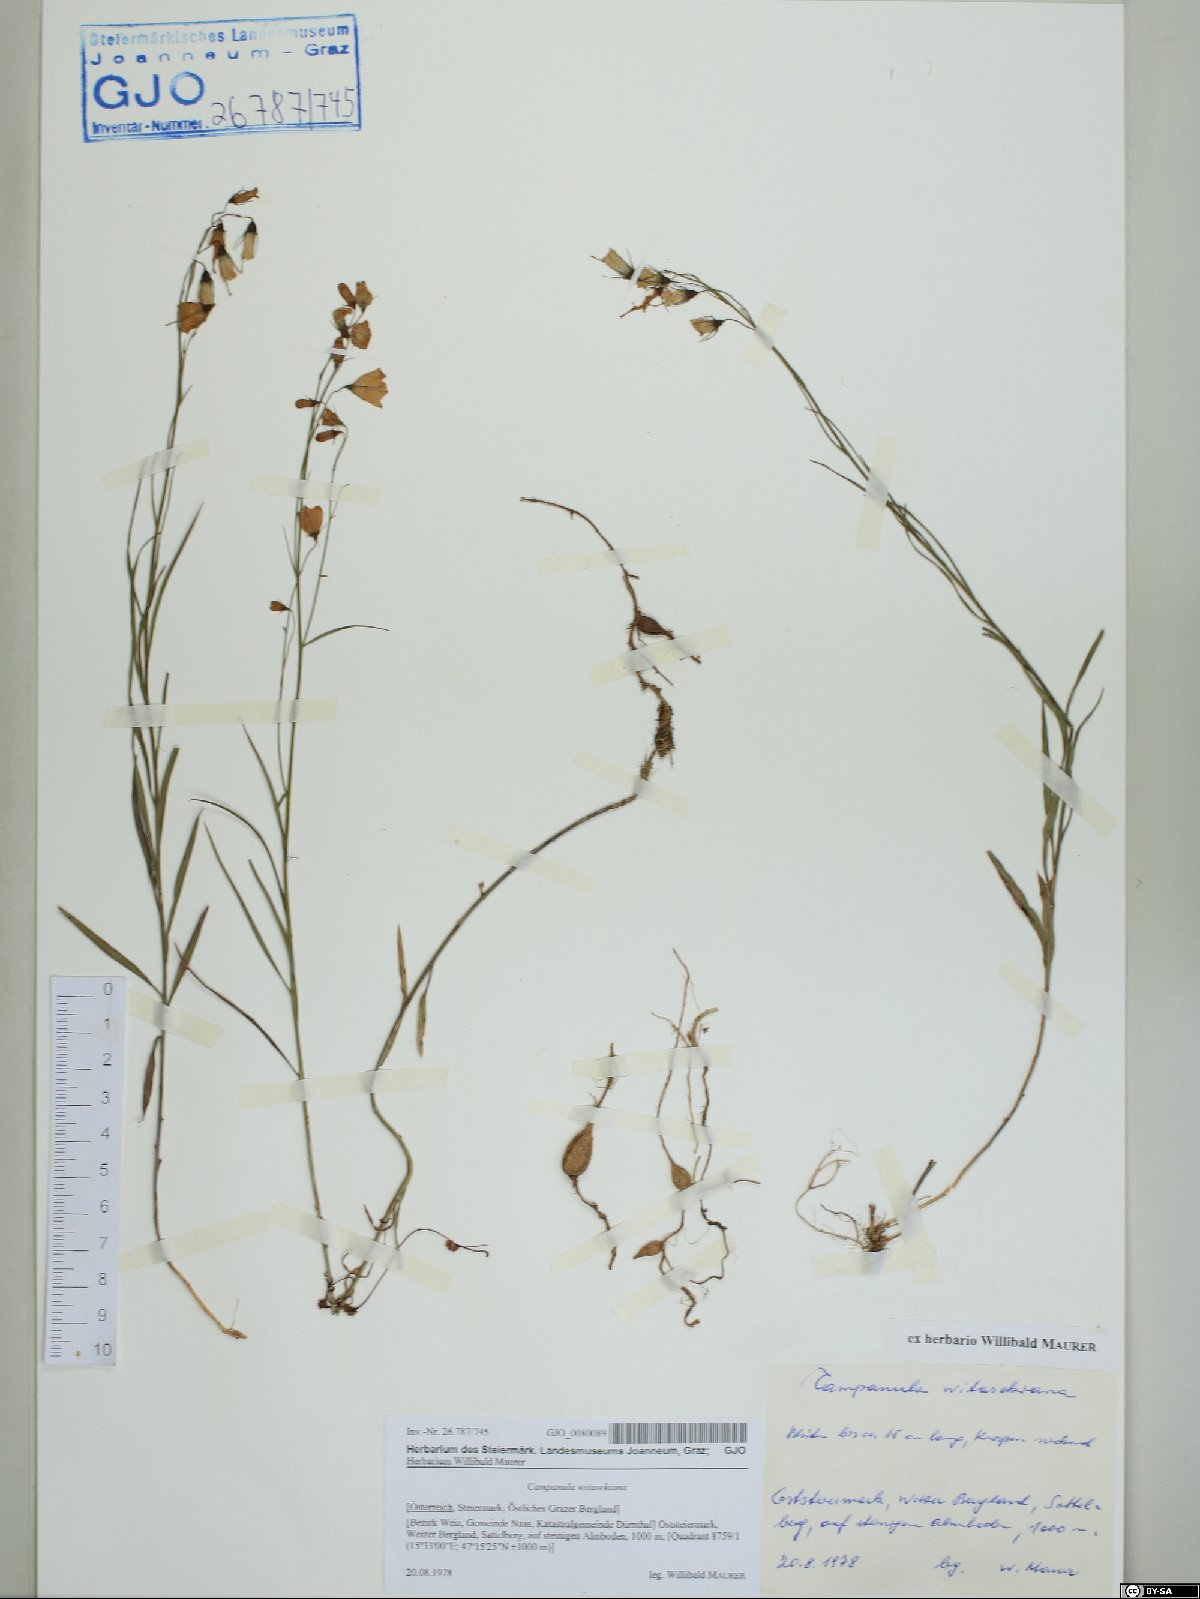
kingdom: Plantae
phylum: Tracheophyta
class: Magnoliopsida
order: Asterales
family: Campanulaceae
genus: Campanula
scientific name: Campanula witasekiana
